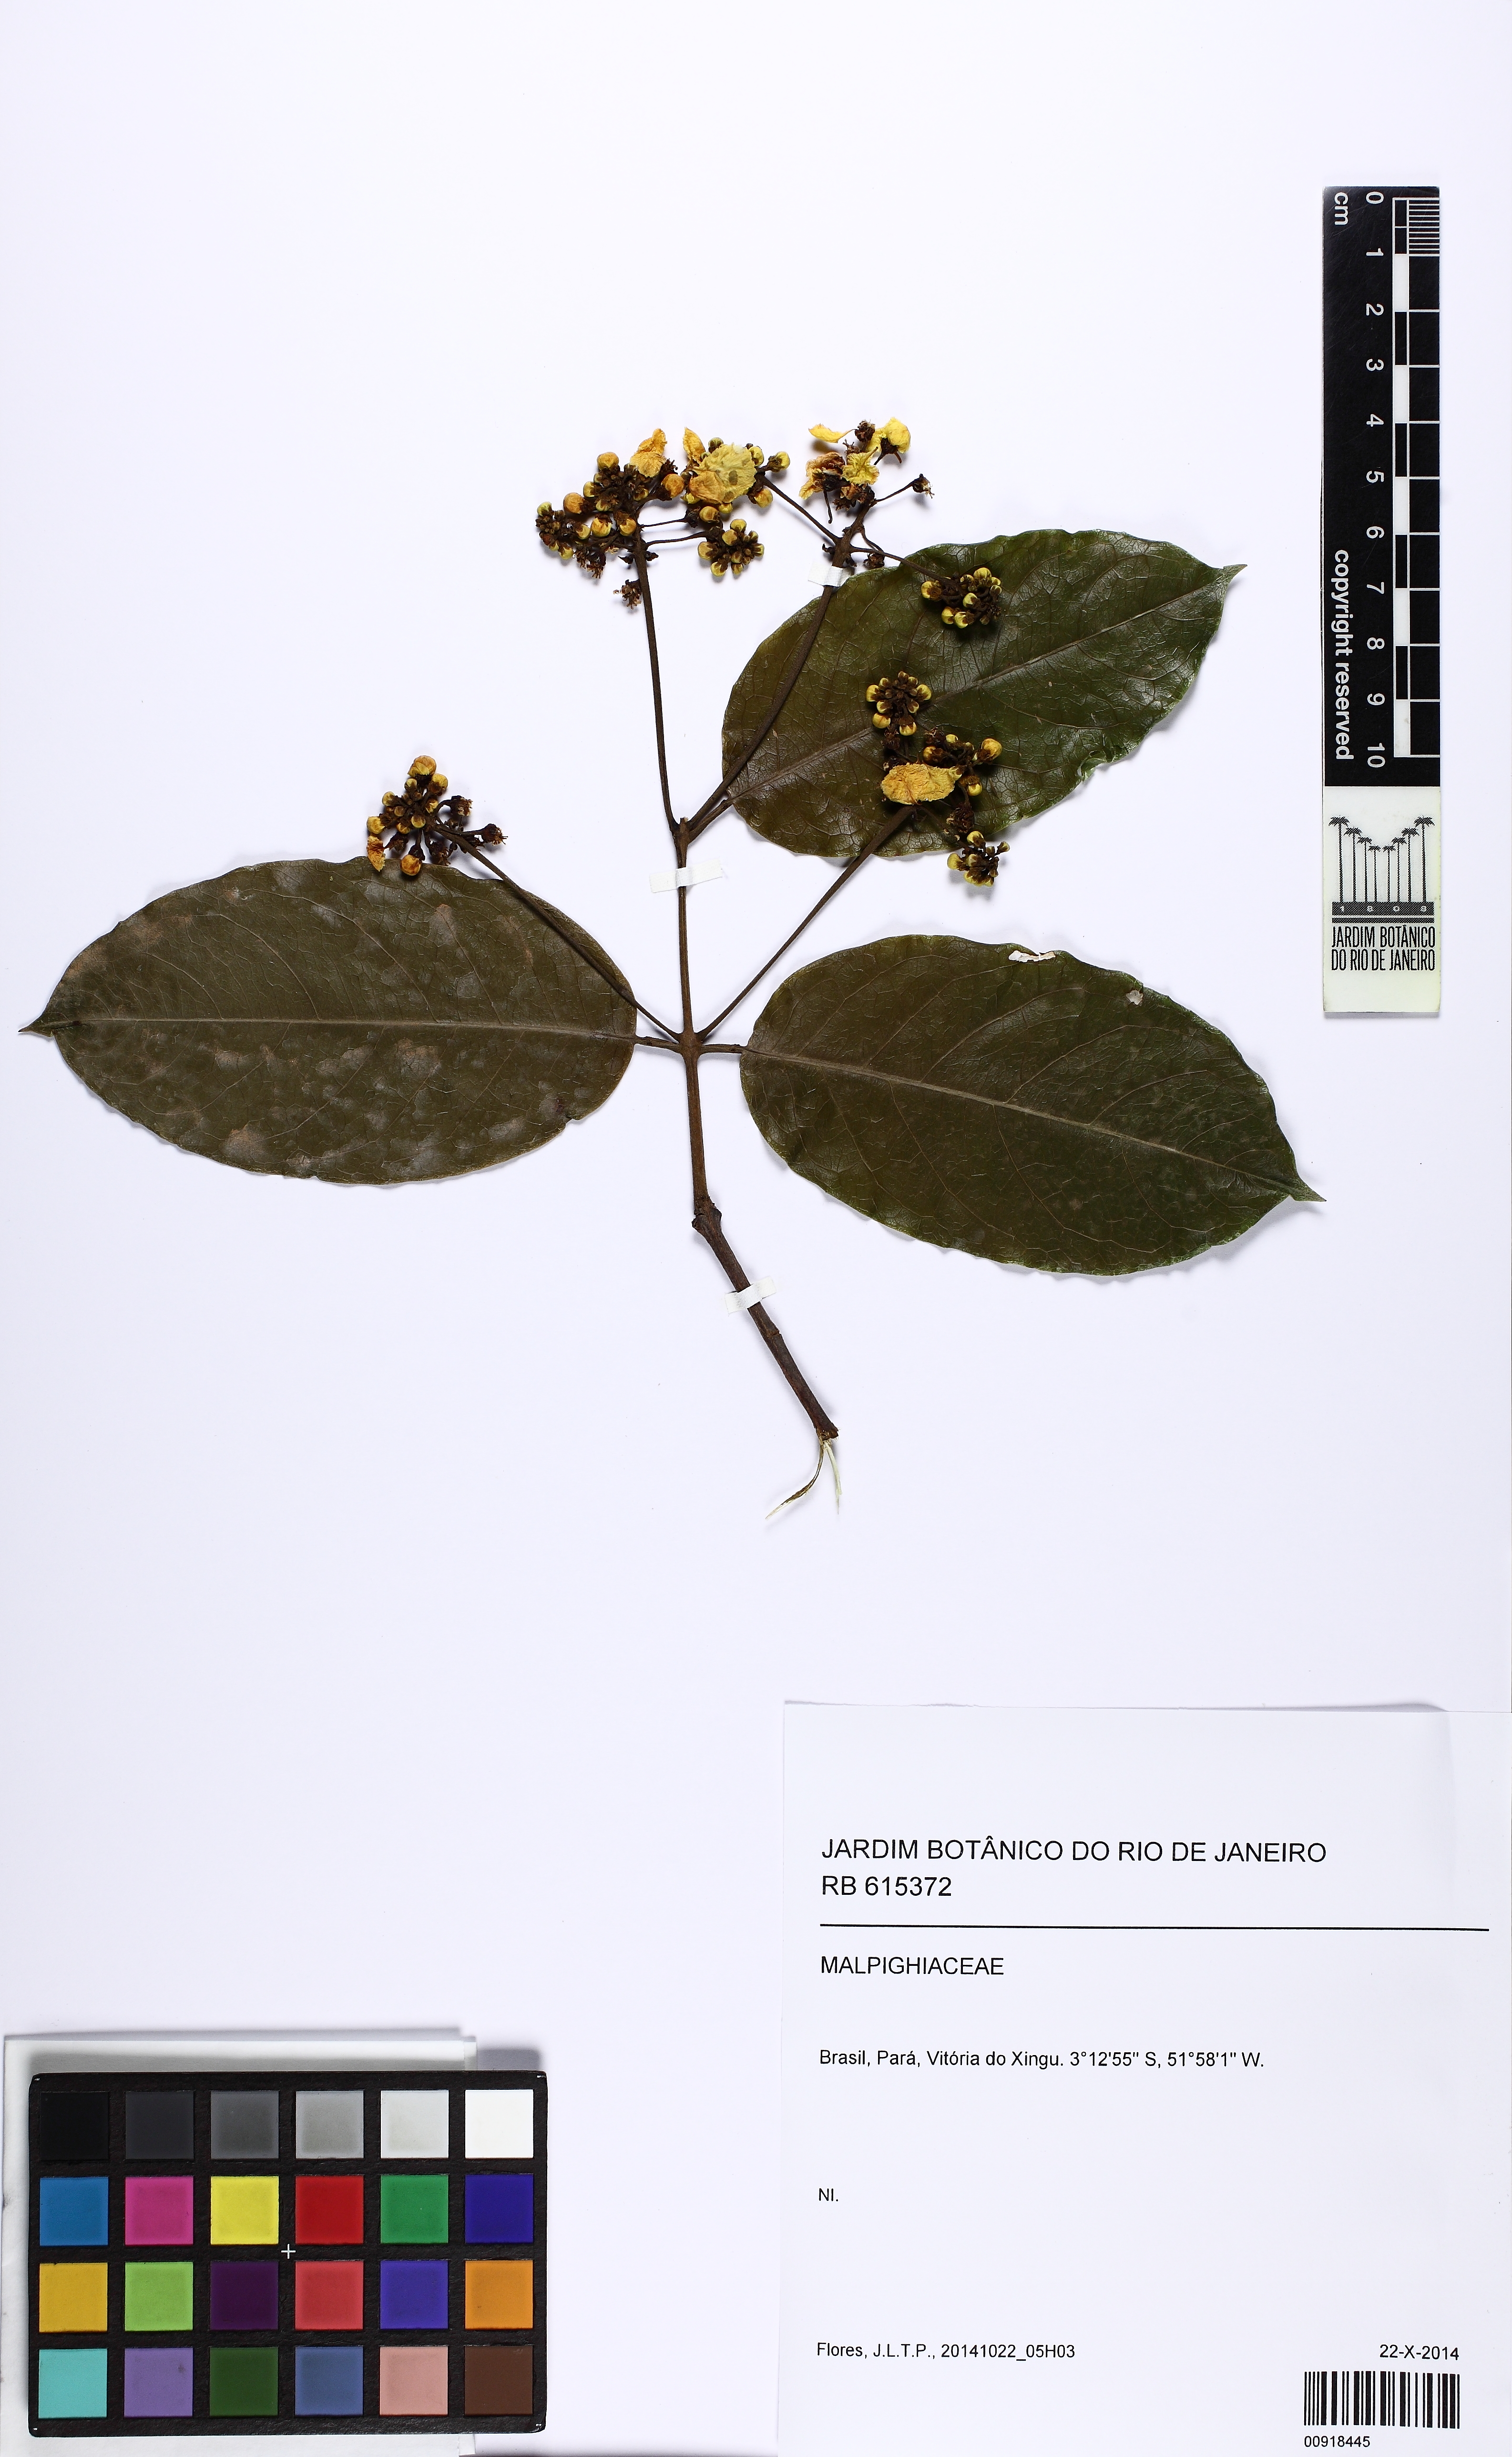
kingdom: Plantae
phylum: Tracheophyta
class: Magnoliopsida
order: Malpighiales
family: Malpighiaceae
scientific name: Malpighiaceae
